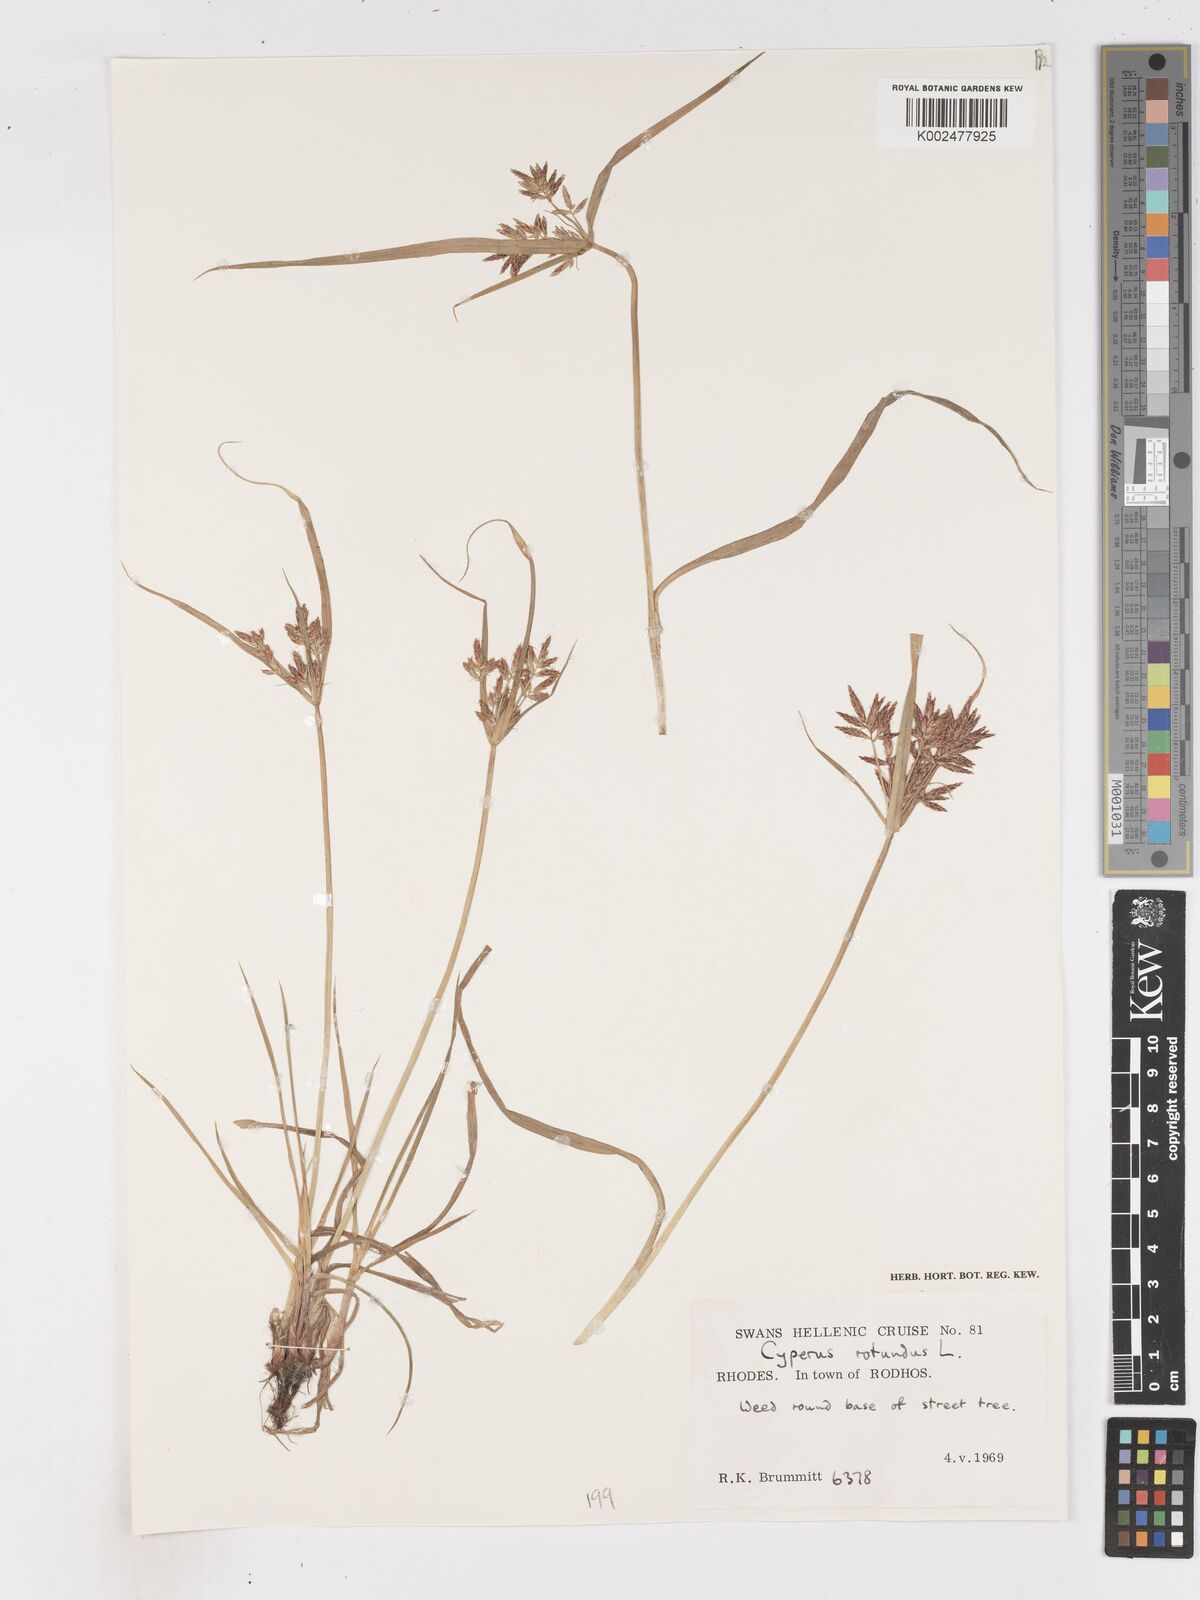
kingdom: Plantae
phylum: Tracheophyta
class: Liliopsida
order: Poales
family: Cyperaceae
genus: Cyperus
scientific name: Cyperus rotundus
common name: Nutgrass
